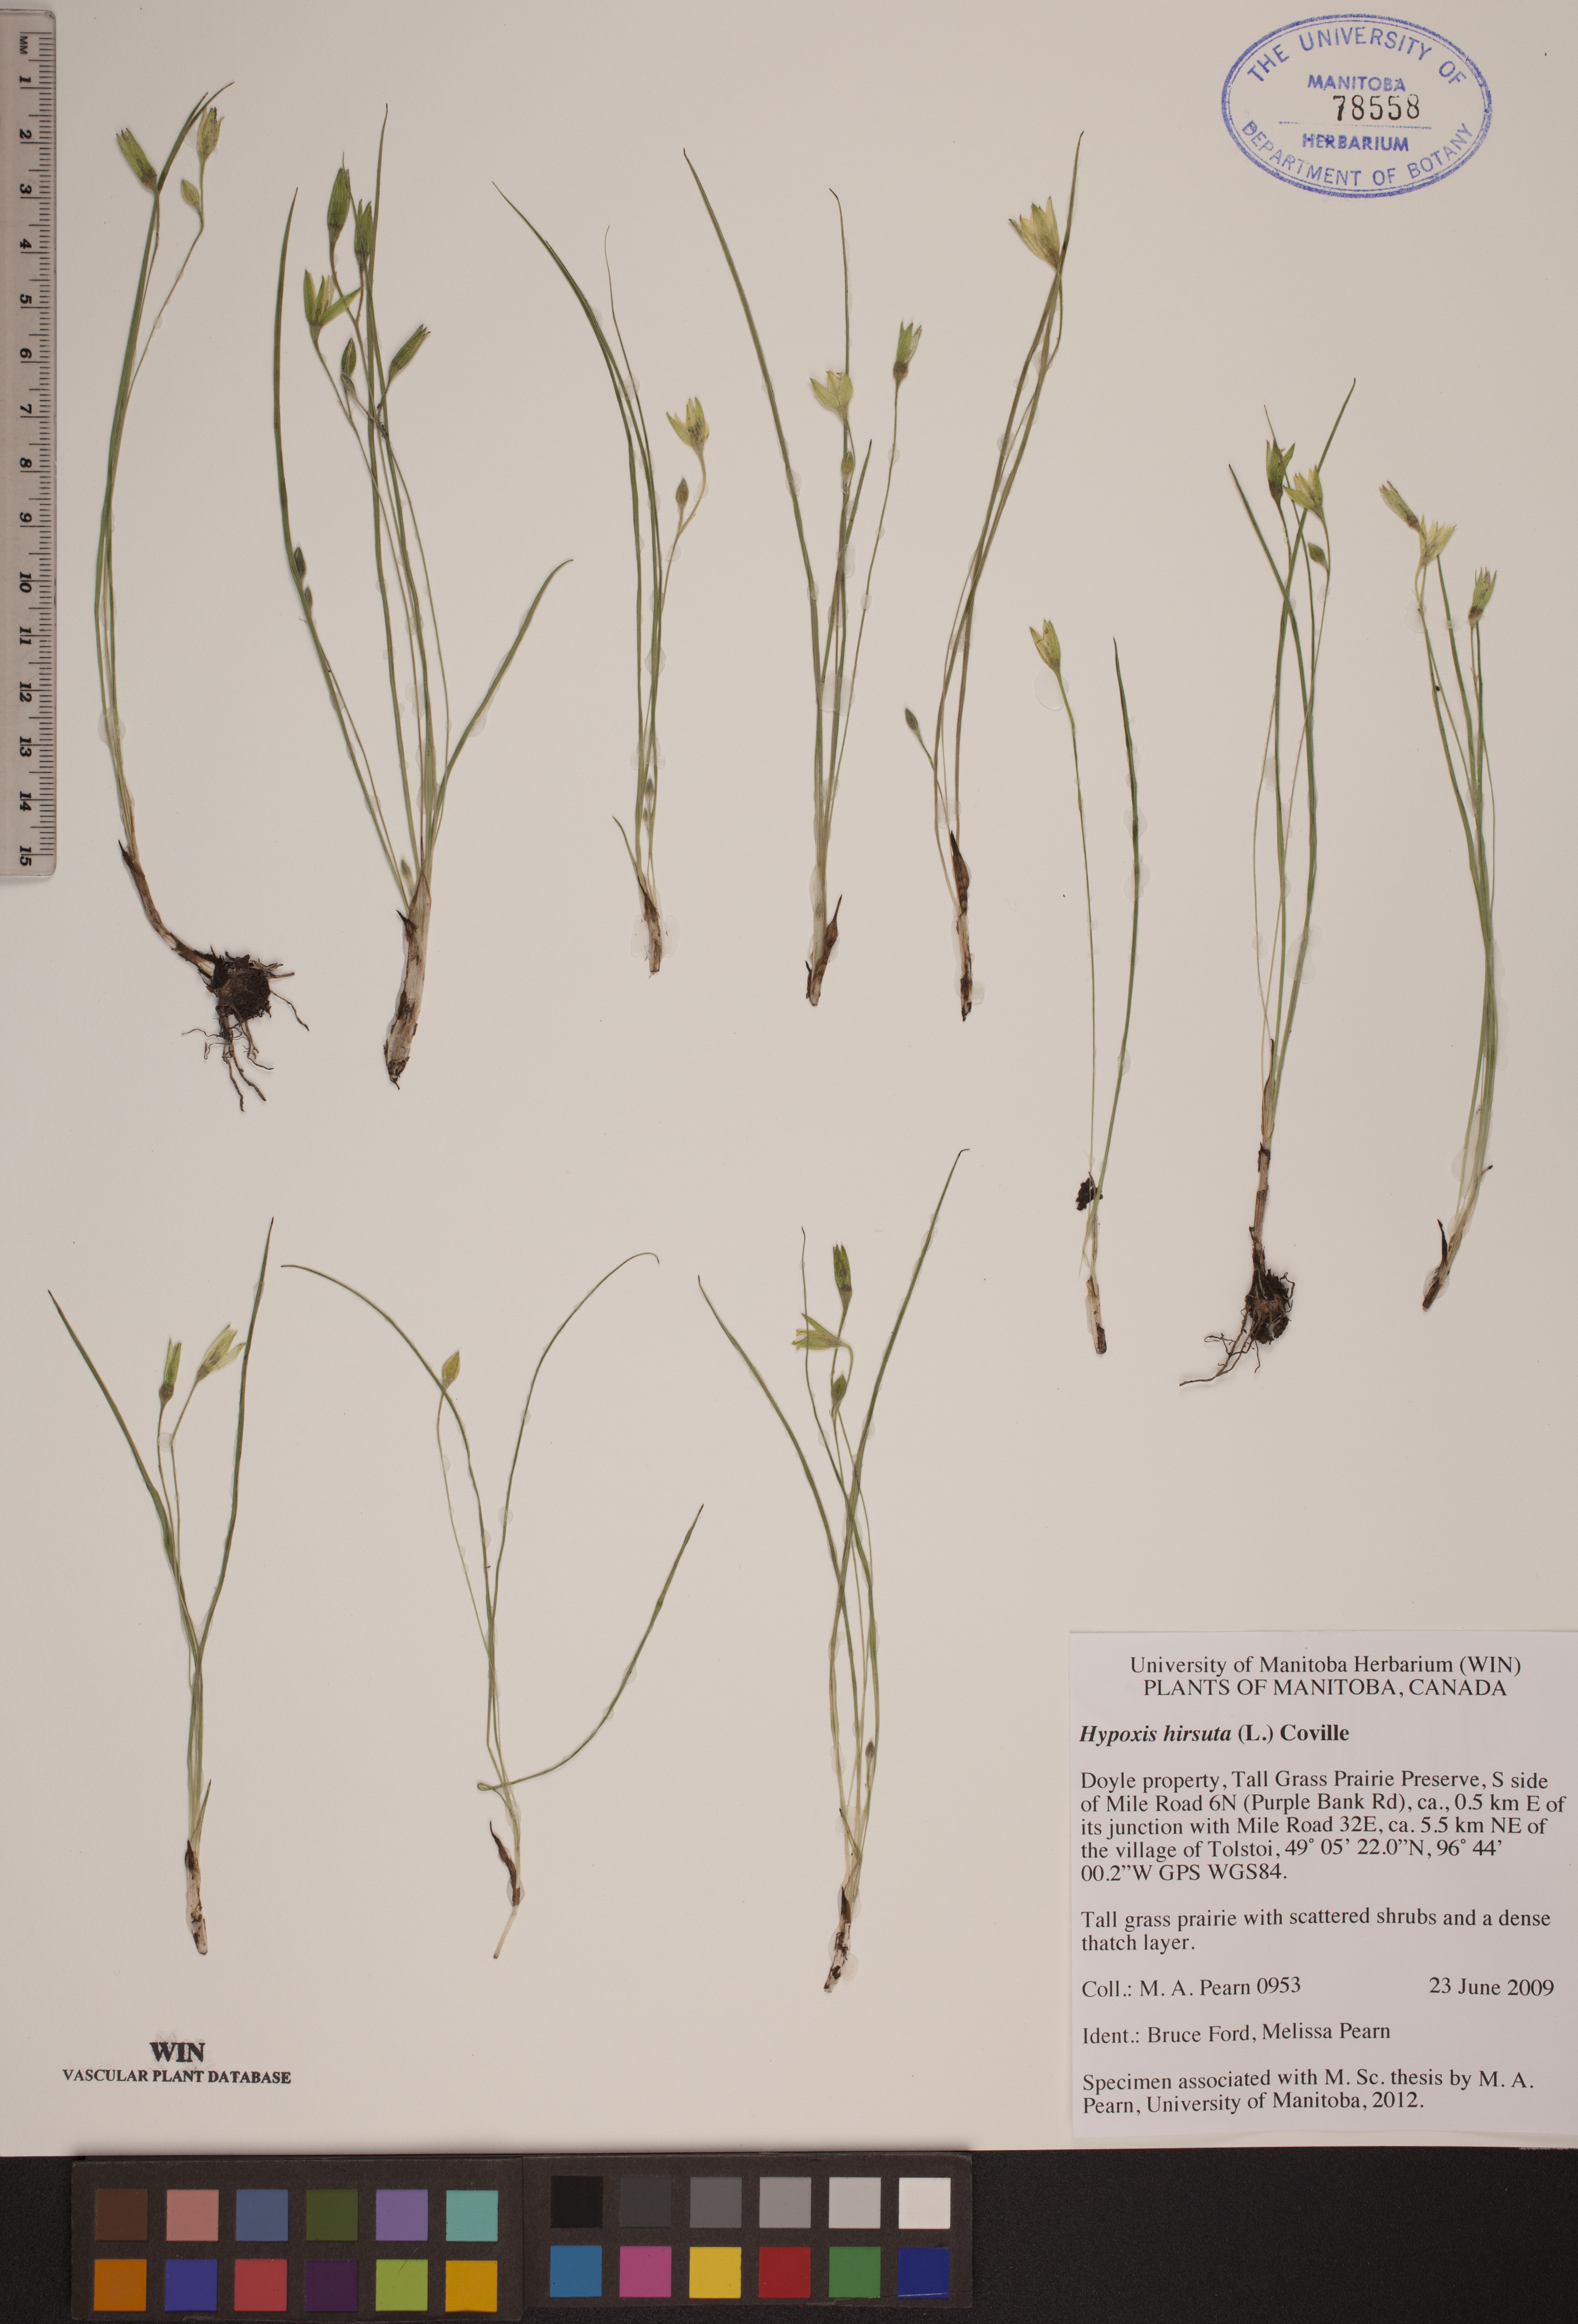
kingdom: Plantae
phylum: Tracheophyta
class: Liliopsida
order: Asparagales
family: Hypoxidaceae
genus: Hypoxis
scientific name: Hypoxis hirsuta
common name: Common goldstar
